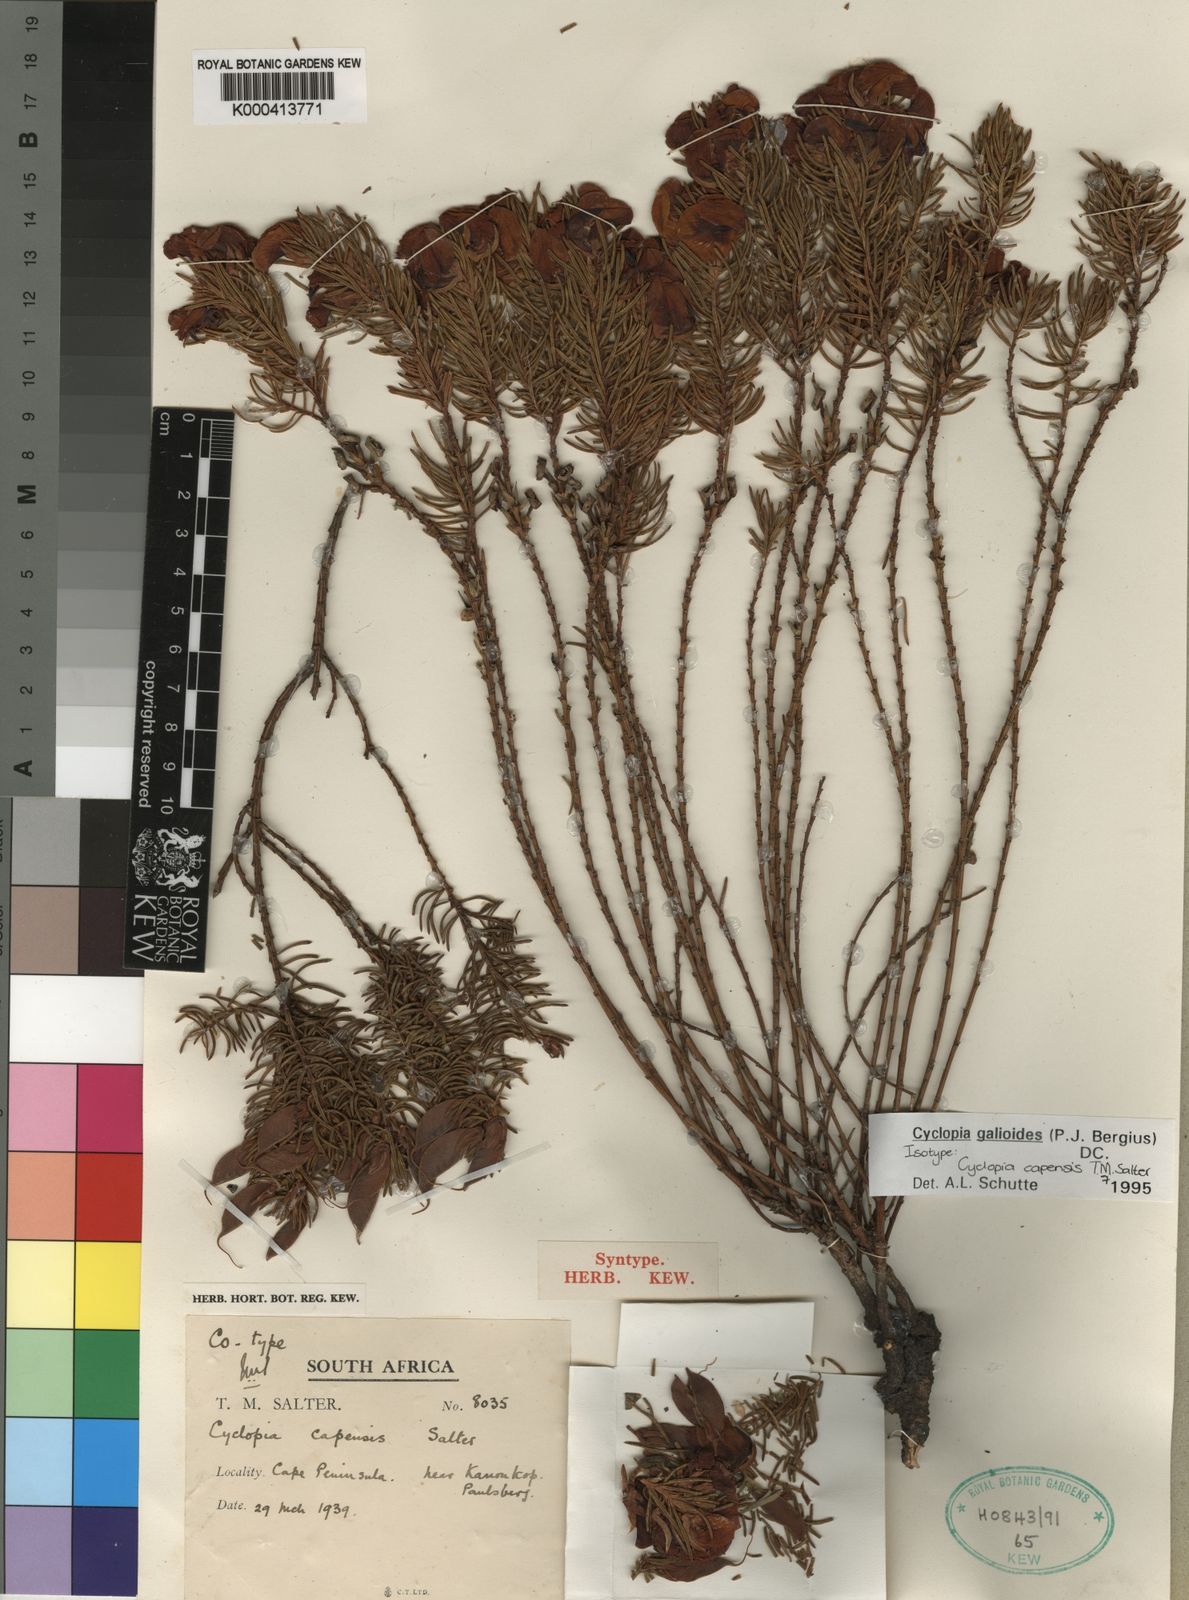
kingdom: Plantae
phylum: Tracheophyta
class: Magnoliopsida
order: Fabales
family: Fabaceae
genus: Cyclopia
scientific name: Cyclopia galioides
